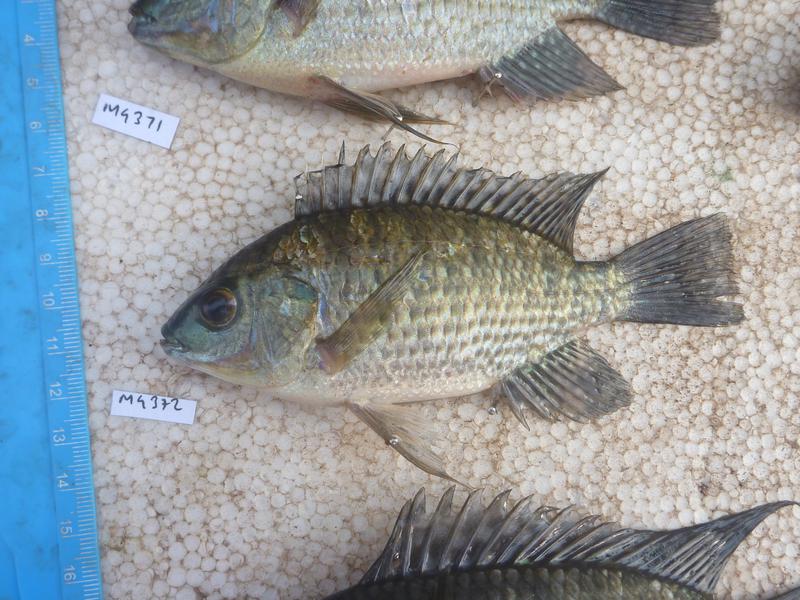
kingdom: Animalia
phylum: Chordata
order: Perciformes
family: Cichlidae
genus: Oreochromis
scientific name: Oreochromis leucostictus
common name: Blue spotted tilapia
